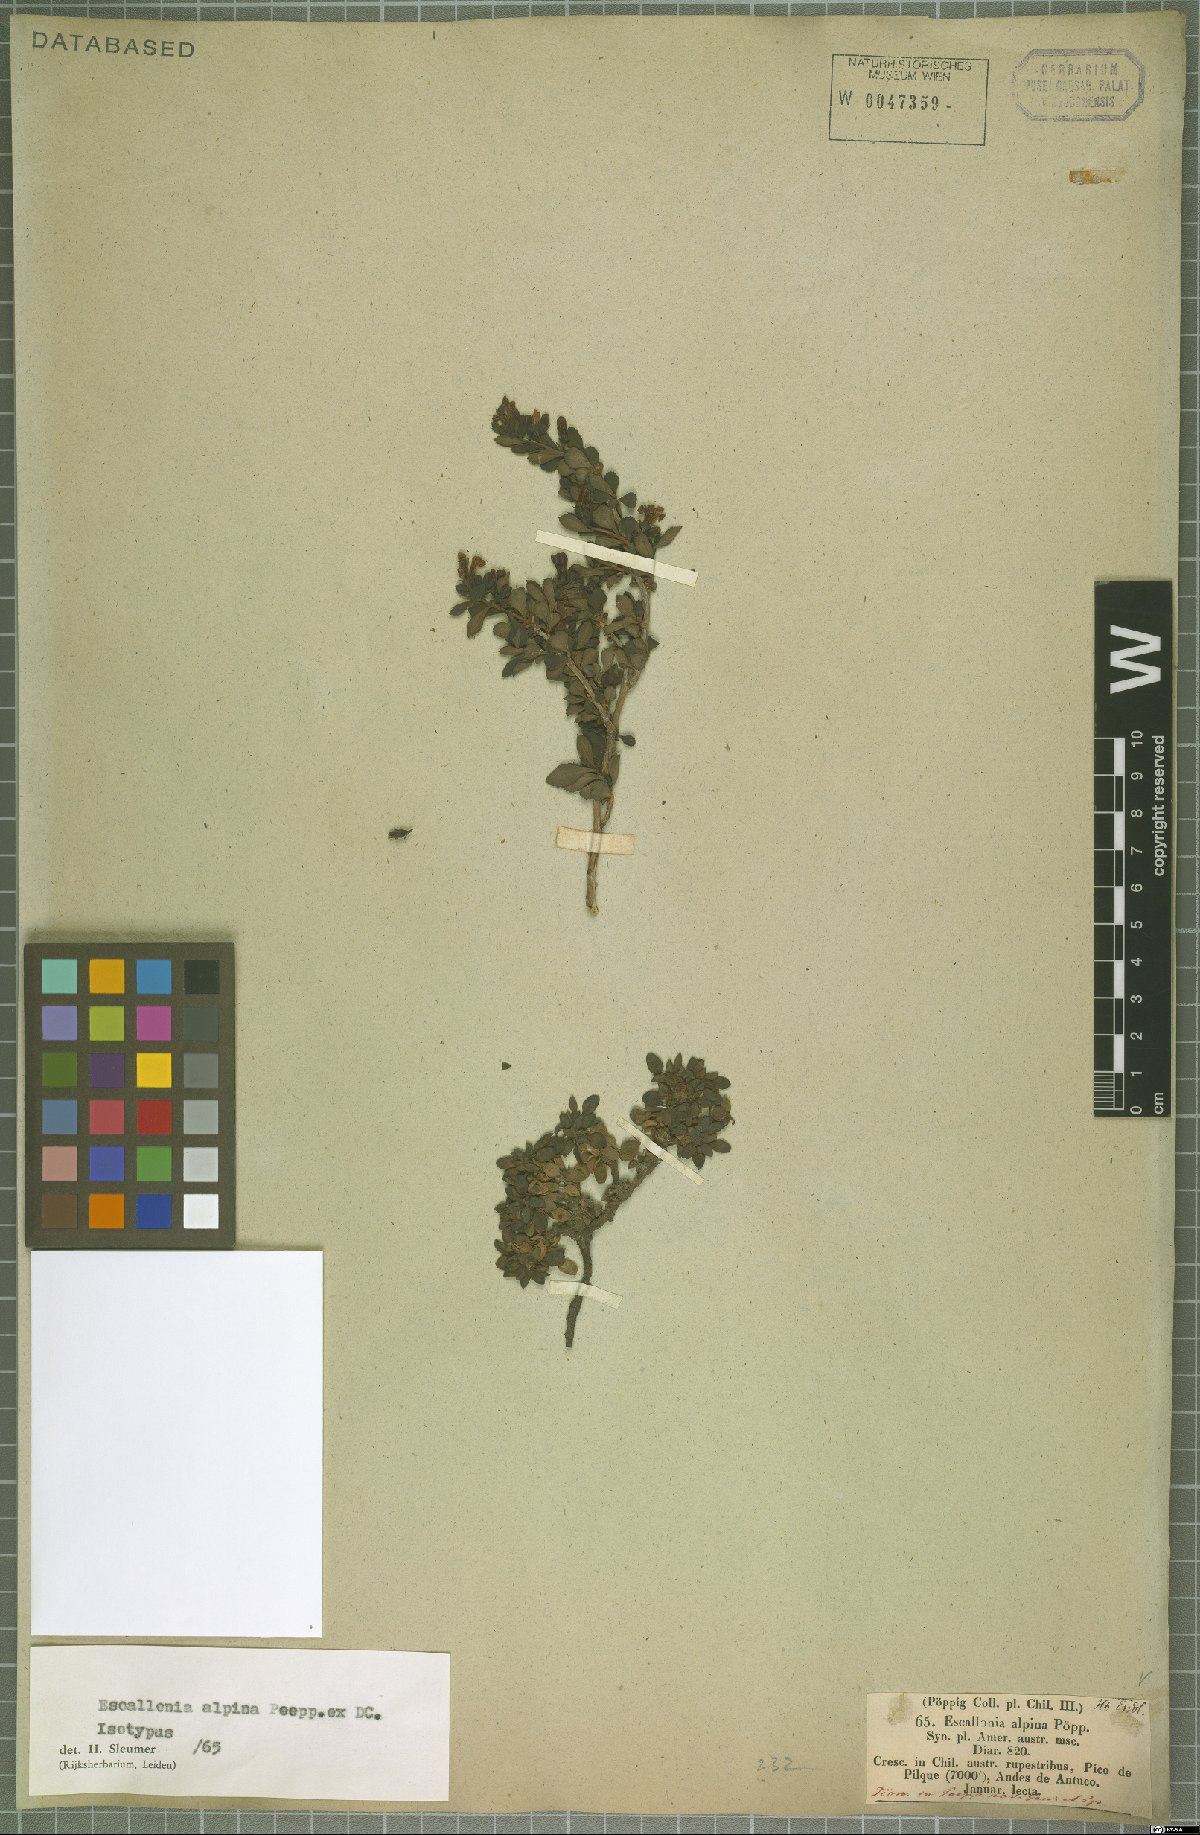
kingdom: Plantae
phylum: Tracheophyta
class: Magnoliopsida
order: Escalloniales
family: Escalloniaceae
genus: Escallonia
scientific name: Escallonia alpina
